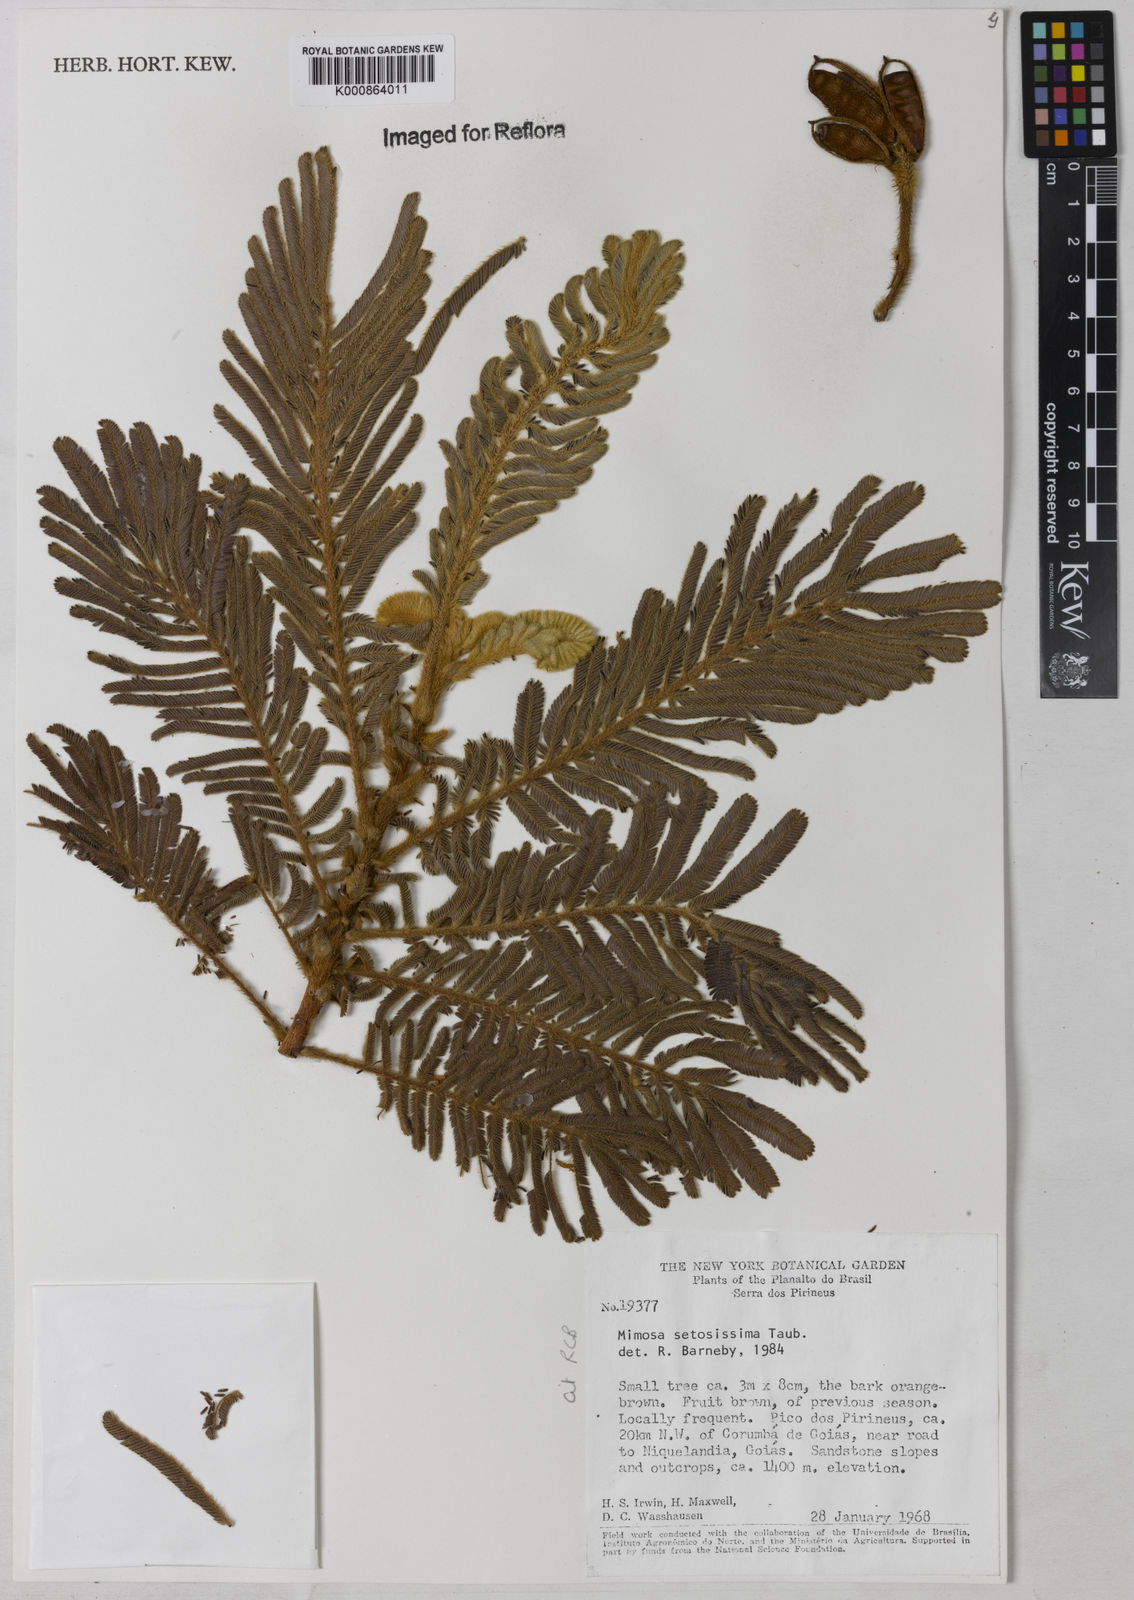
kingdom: Plantae
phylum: Tracheophyta
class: Magnoliopsida
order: Fabales
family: Fabaceae
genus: Mimosa
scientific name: Mimosa setosissima
